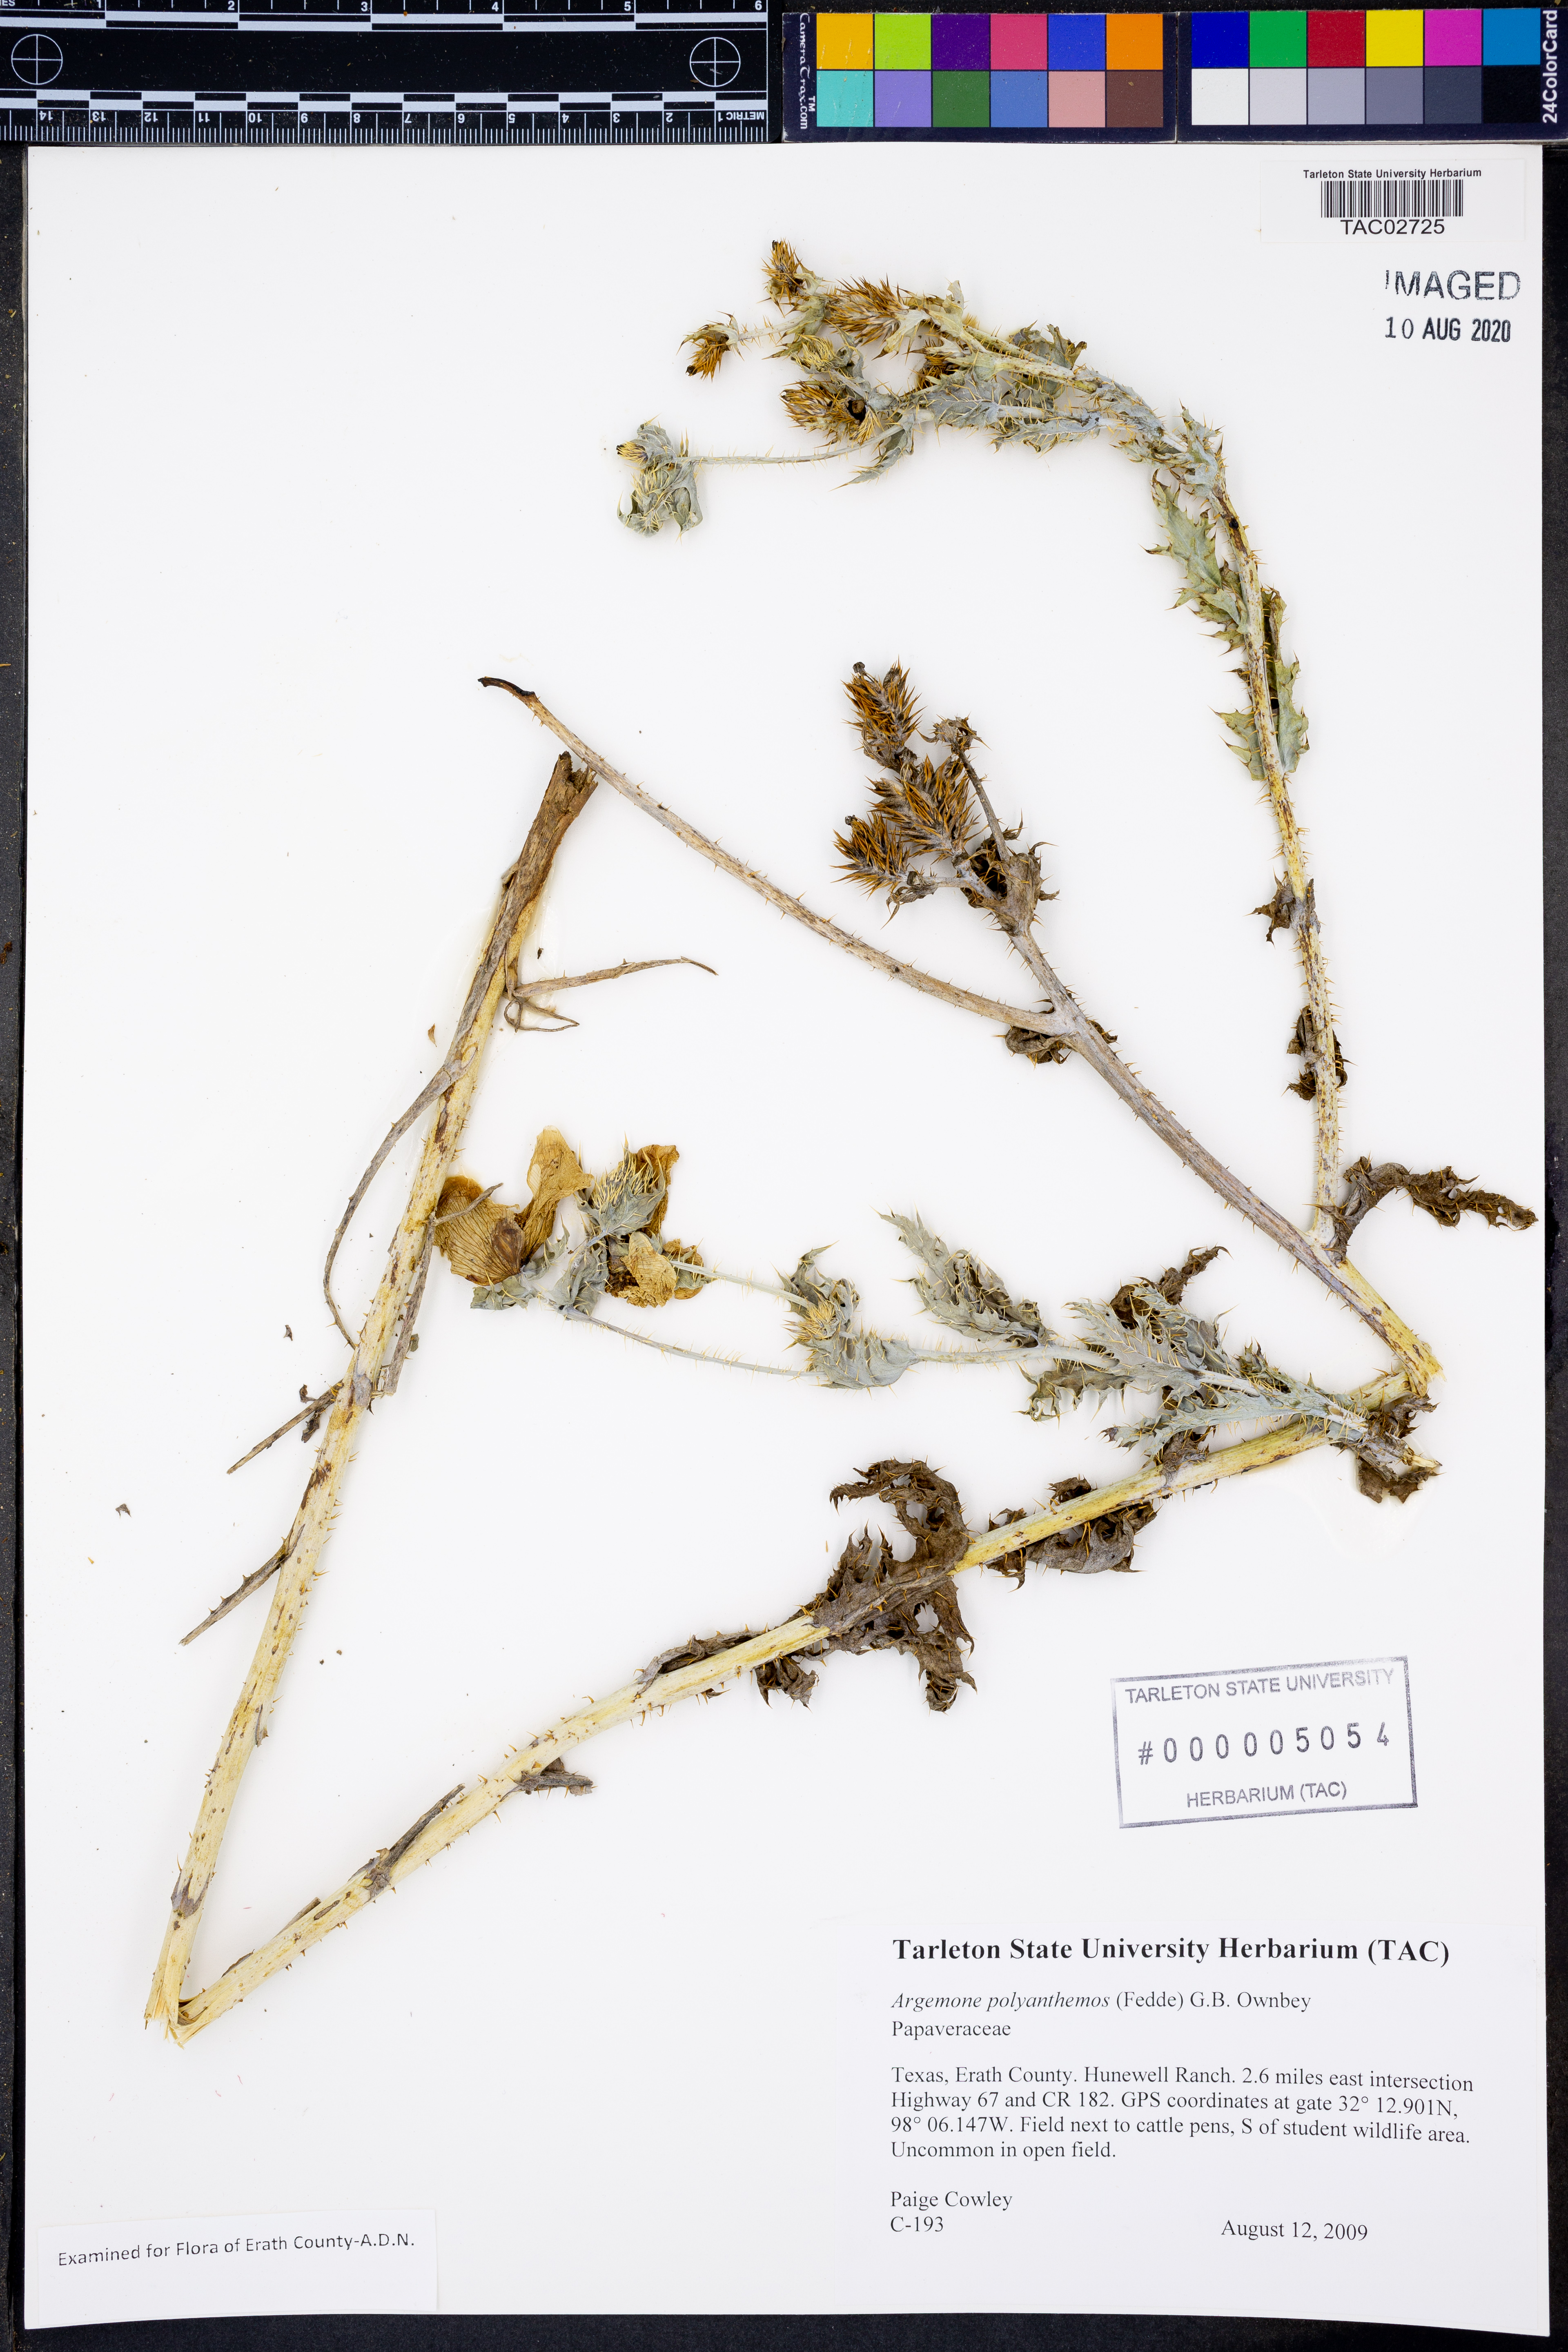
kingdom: Plantae
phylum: Tracheophyta
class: Magnoliopsida
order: Ranunculales
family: Papaveraceae
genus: Argemone
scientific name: Argemone polyanthemos
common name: Plains prickly-poppy
